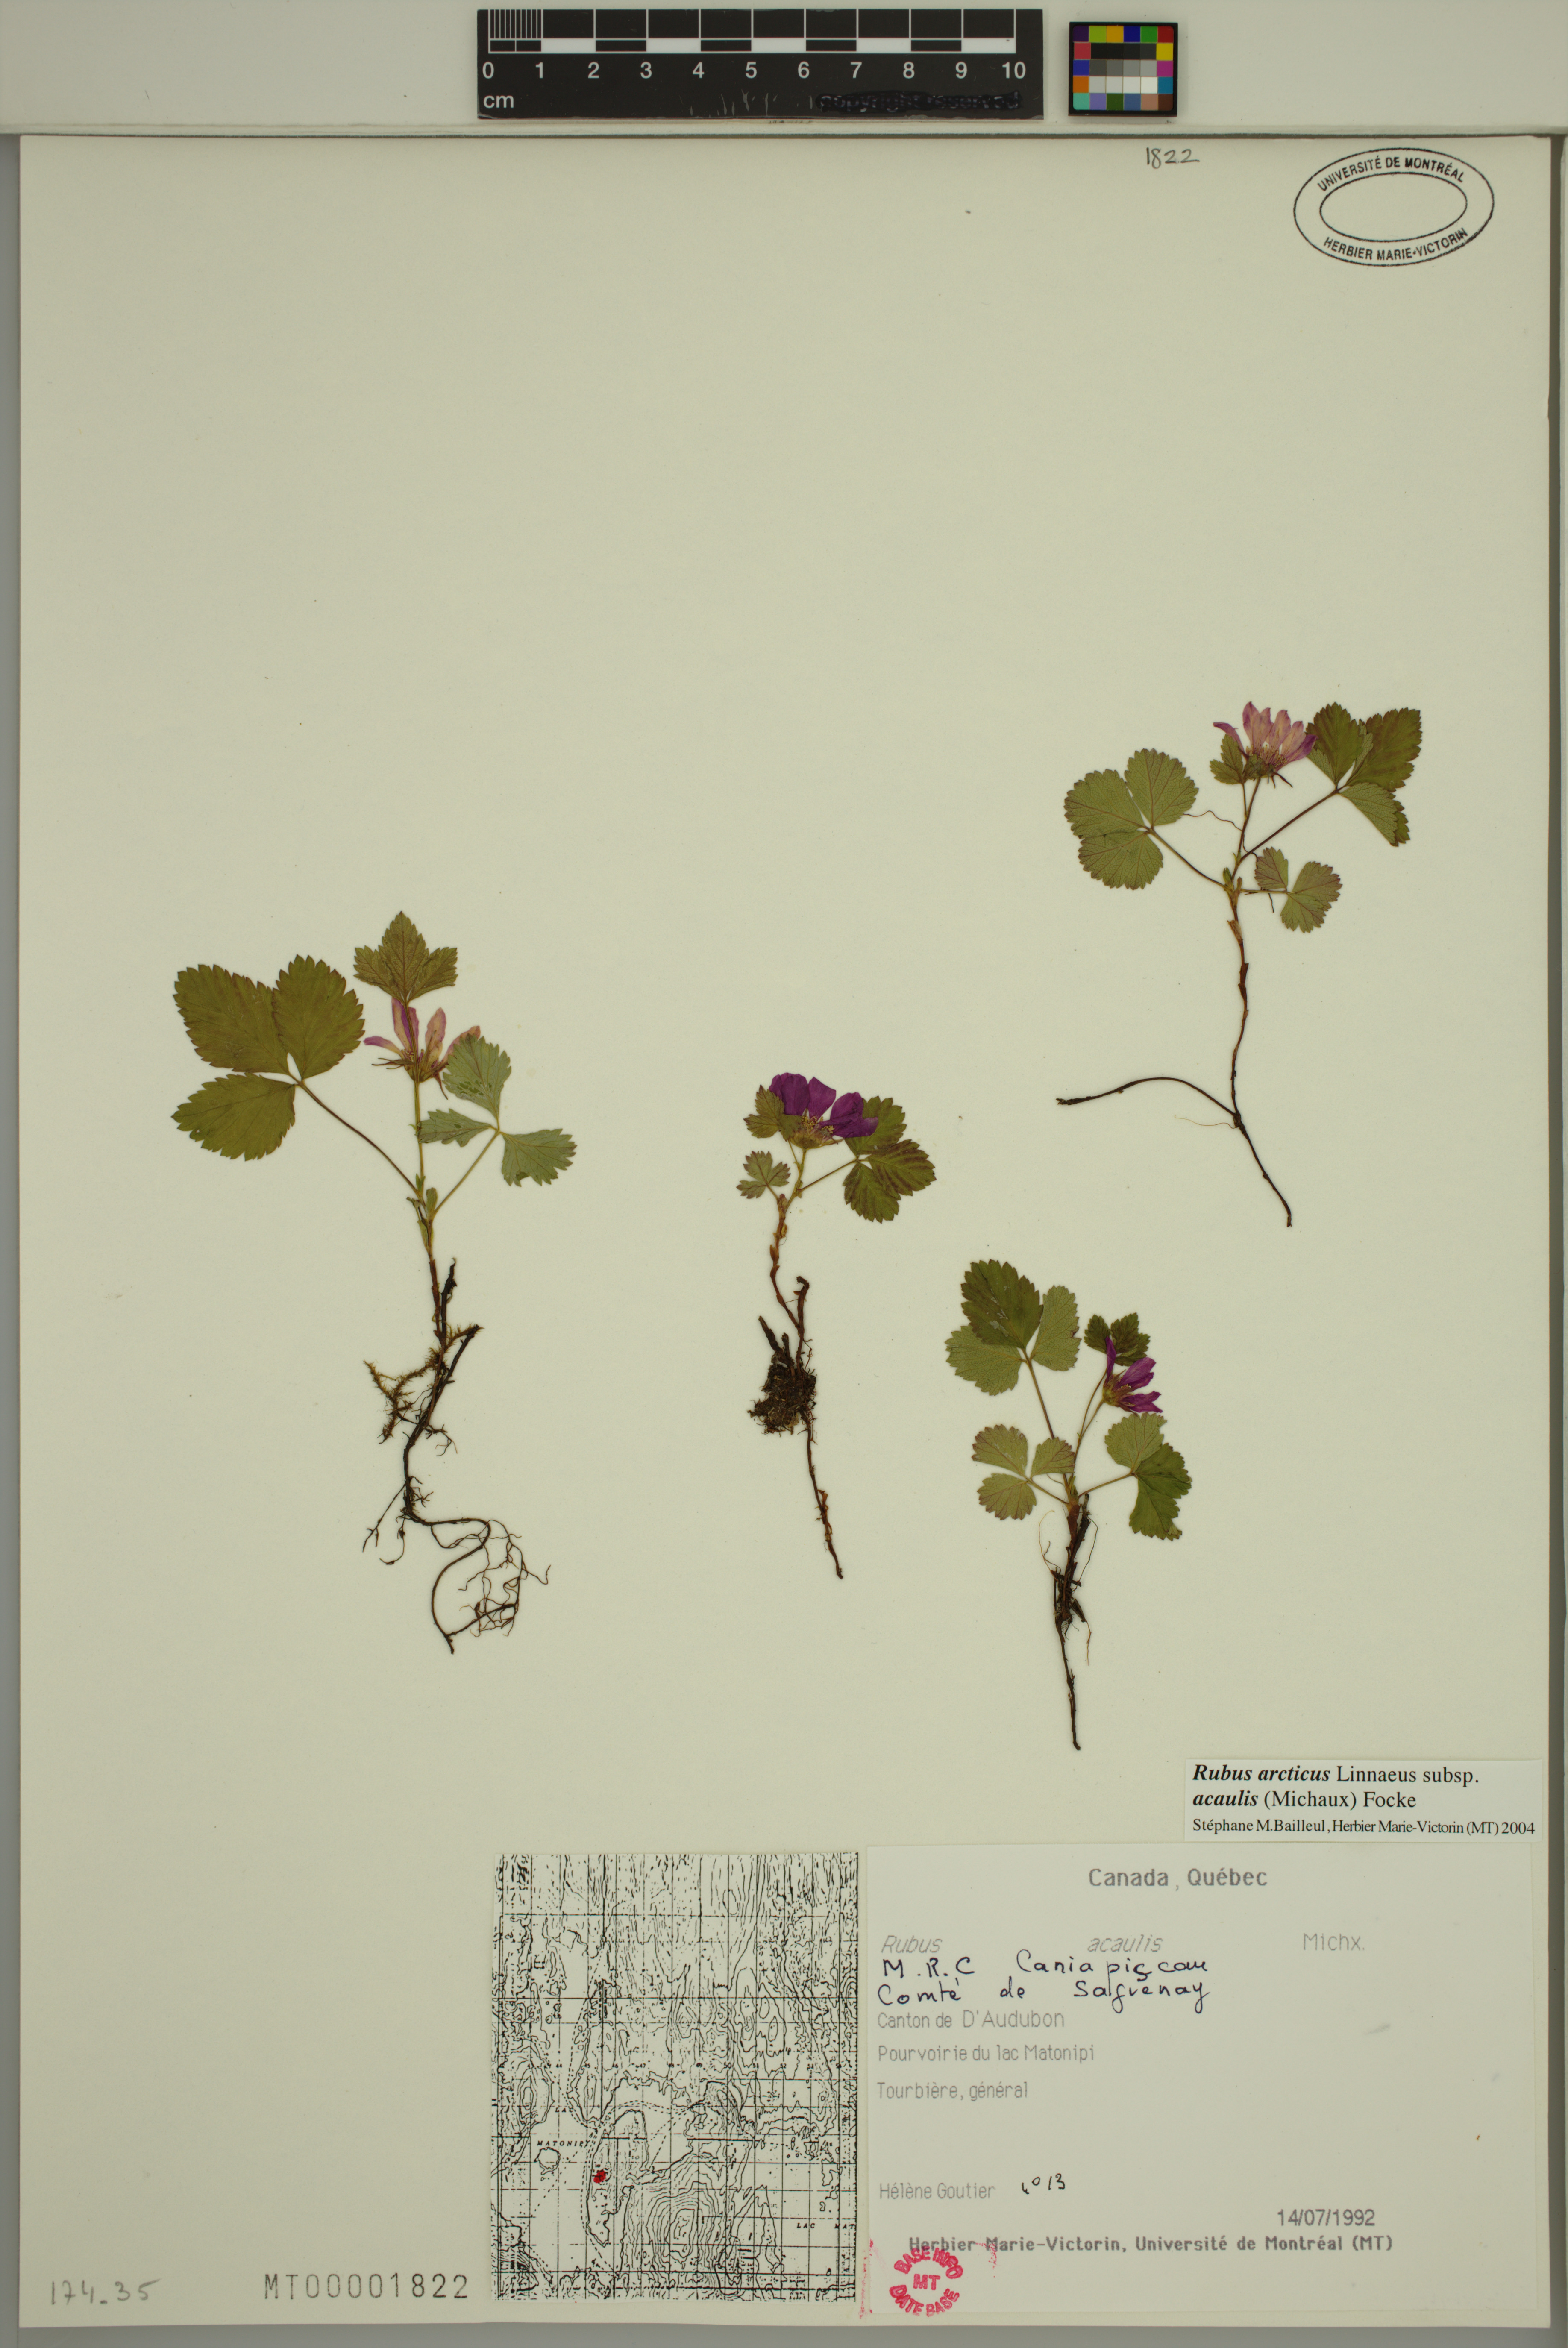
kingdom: Plantae
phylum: Tracheophyta
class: Magnoliopsida
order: Rosales
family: Rosaceae
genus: Rubus
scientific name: Rubus arcticus
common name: Arctic bramble
